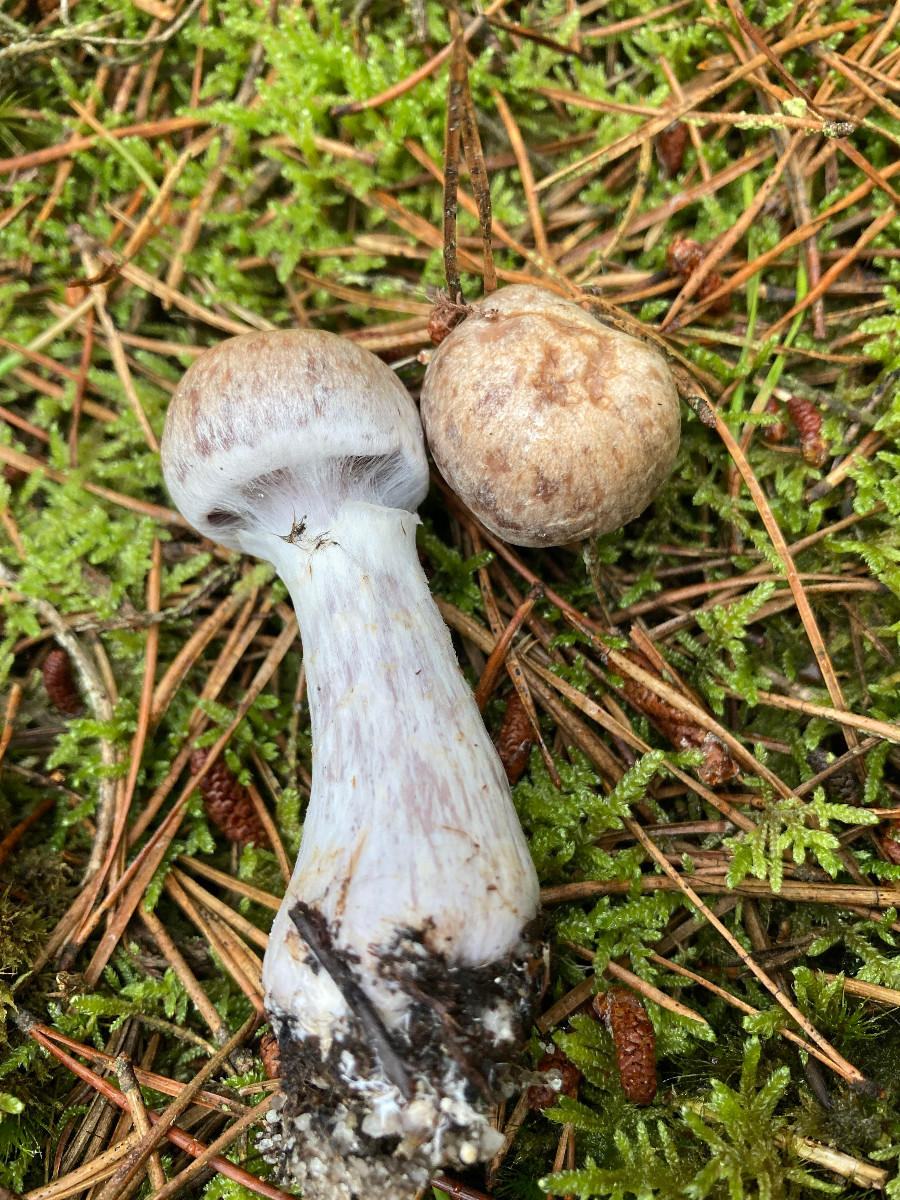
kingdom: Fungi
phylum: Basidiomycota
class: Agaricomycetes
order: Agaricales
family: Cortinariaceae
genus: Cortinarius
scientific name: Cortinarius quarciticus
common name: kvarts-slørhat
